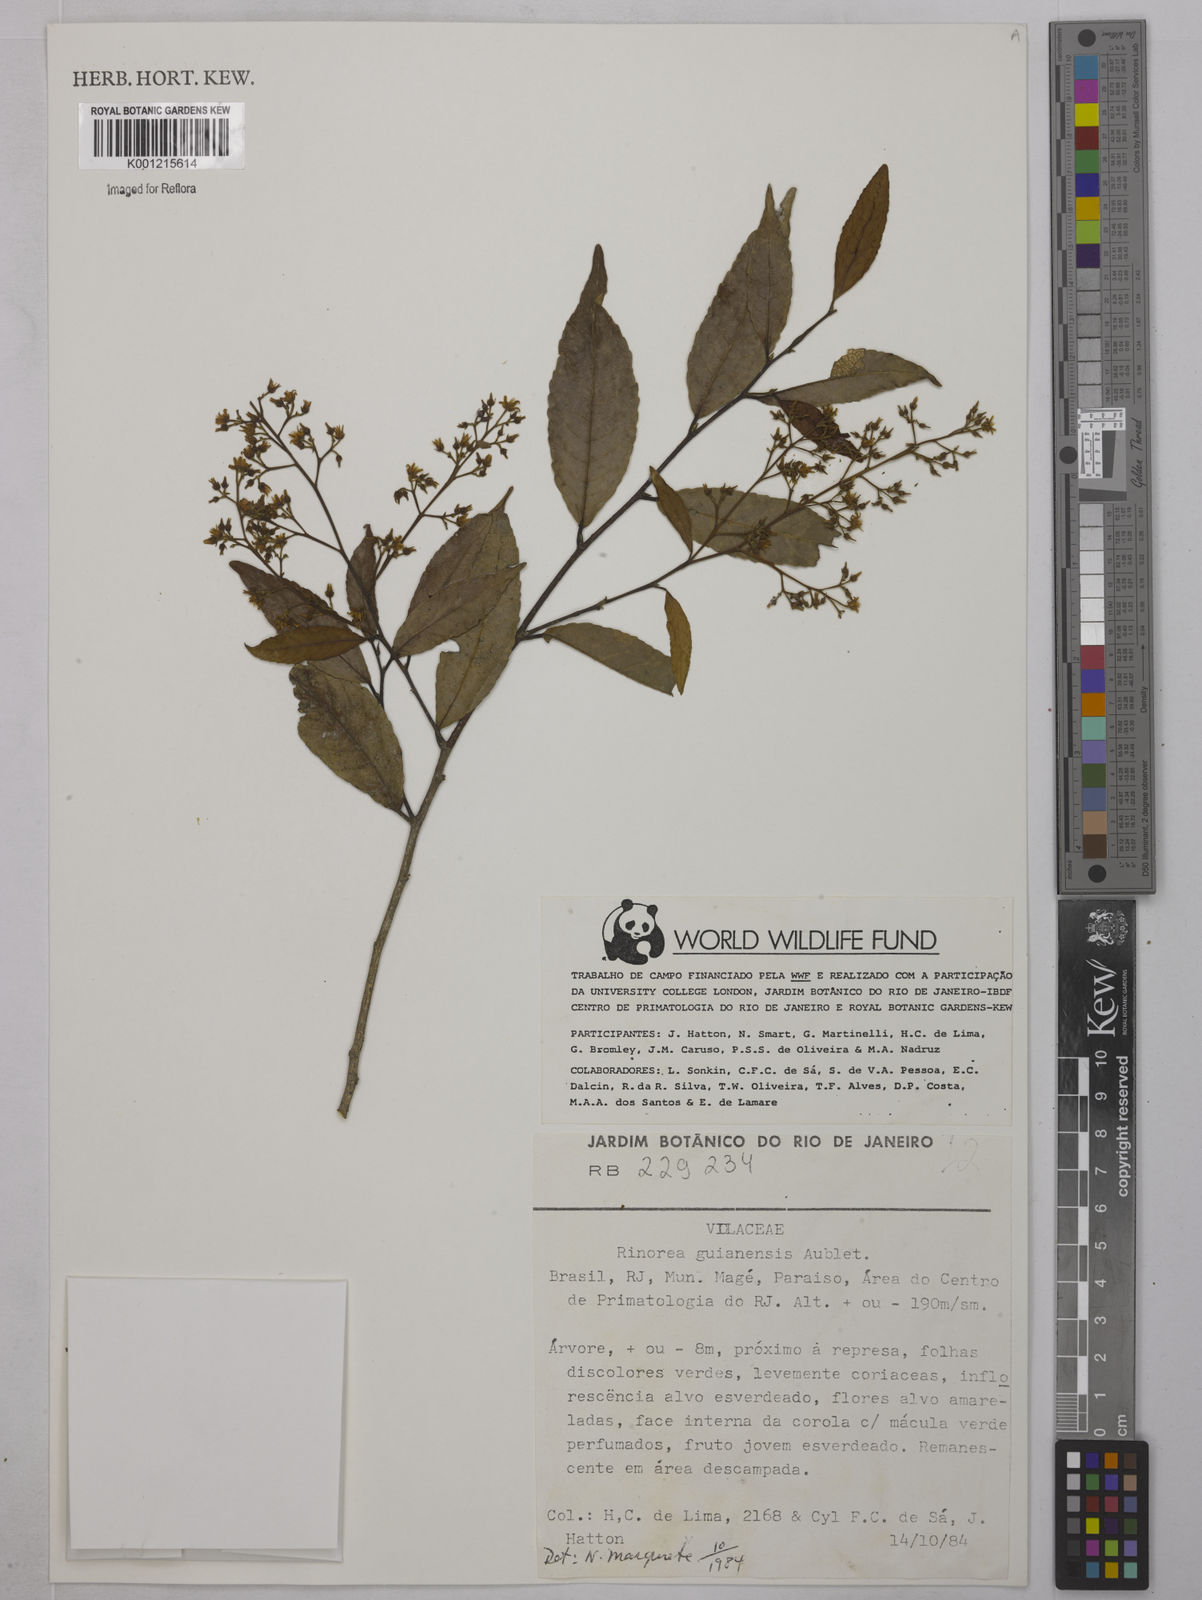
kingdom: Plantae
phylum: Tracheophyta
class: Magnoliopsida
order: Malpighiales
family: Violaceae
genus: Rinorea
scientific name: Rinorea guianensis
